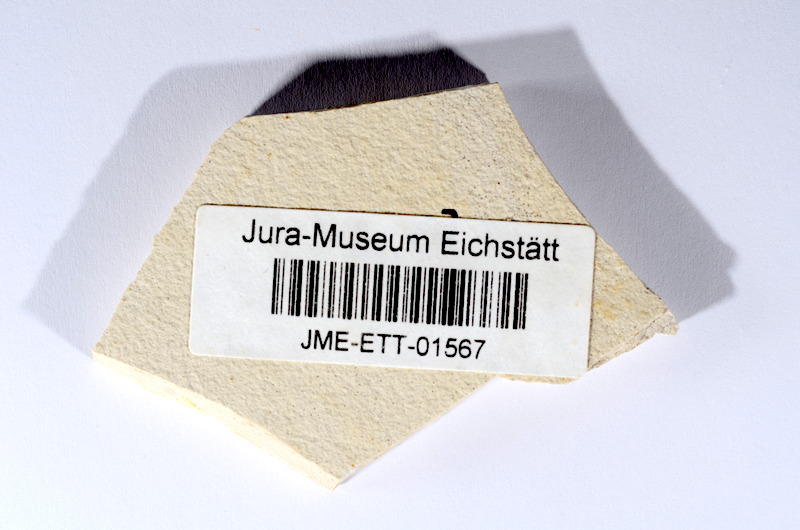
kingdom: Animalia
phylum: Chordata
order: Salmoniformes
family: Orthogonikleithridae
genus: Orthogonikleithrus
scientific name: Orthogonikleithrus hoelli
